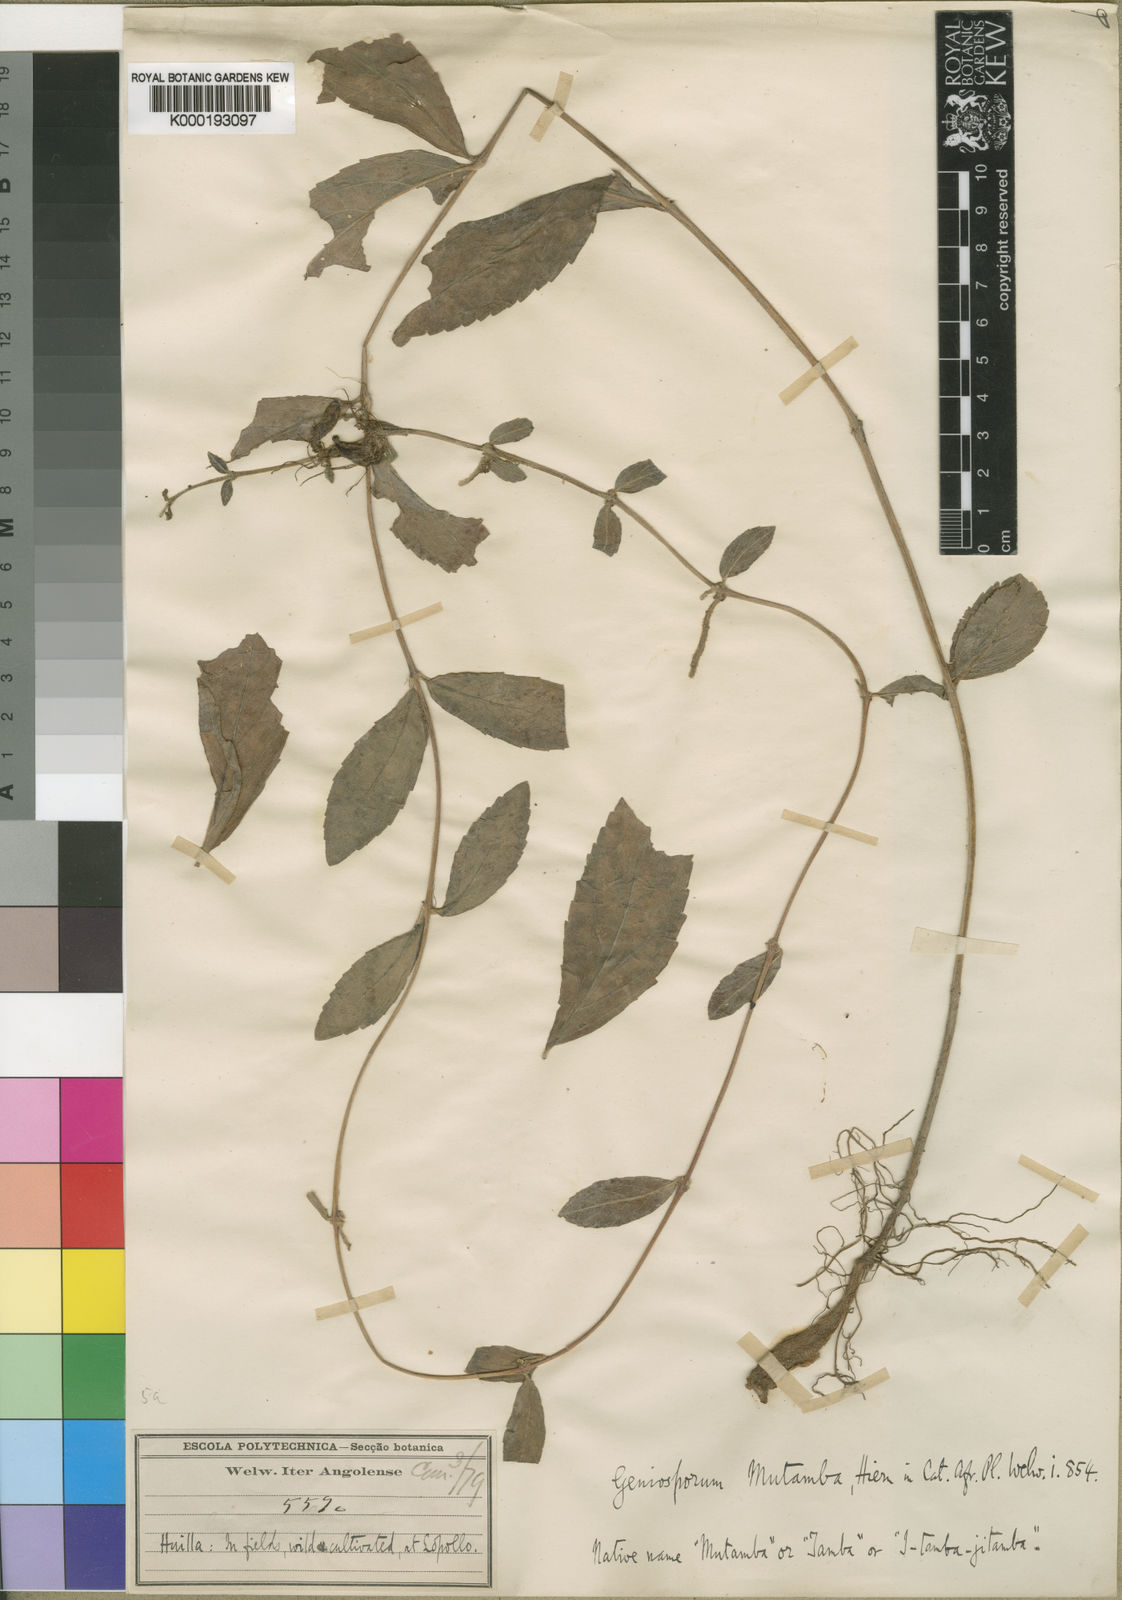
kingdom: Plantae
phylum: Tracheophyta
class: Magnoliopsida
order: Lamiales
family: Lamiaceae
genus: Pogostemon
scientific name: Pogostemon mutamba
